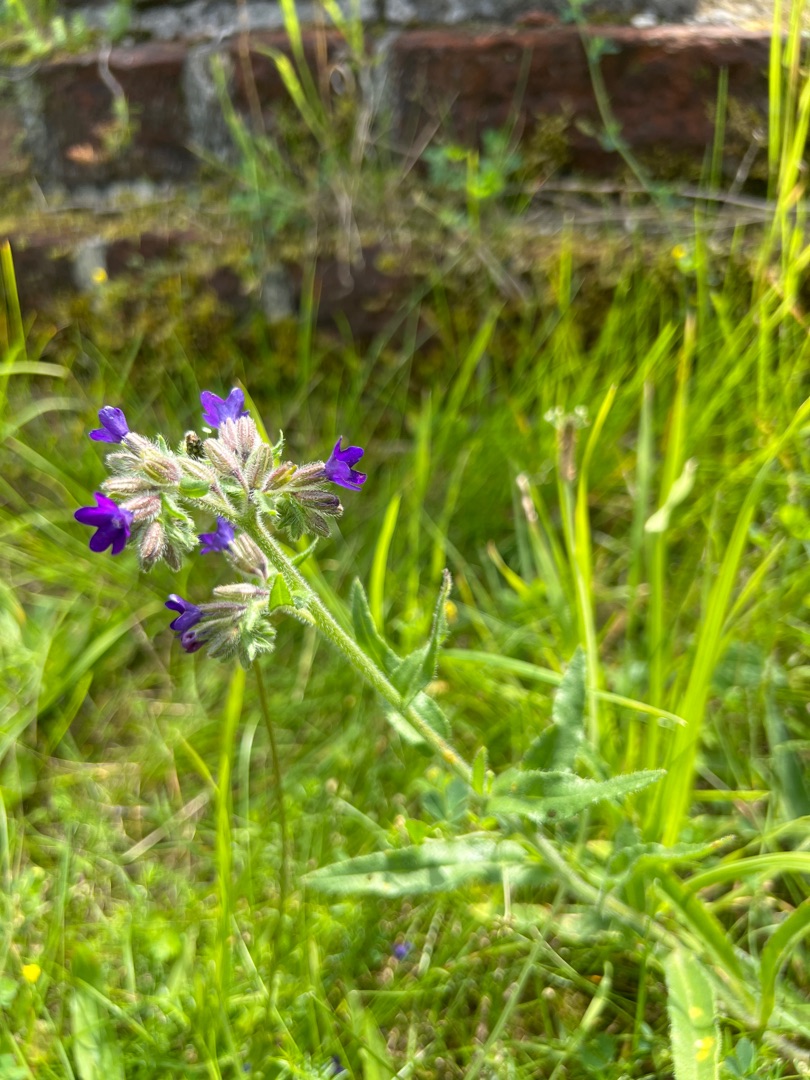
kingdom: Plantae
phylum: Tracheophyta
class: Magnoliopsida
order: Boraginales
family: Boraginaceae
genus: Anchusa
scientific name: Anchusa officinalis
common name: Læge-oksetunge
